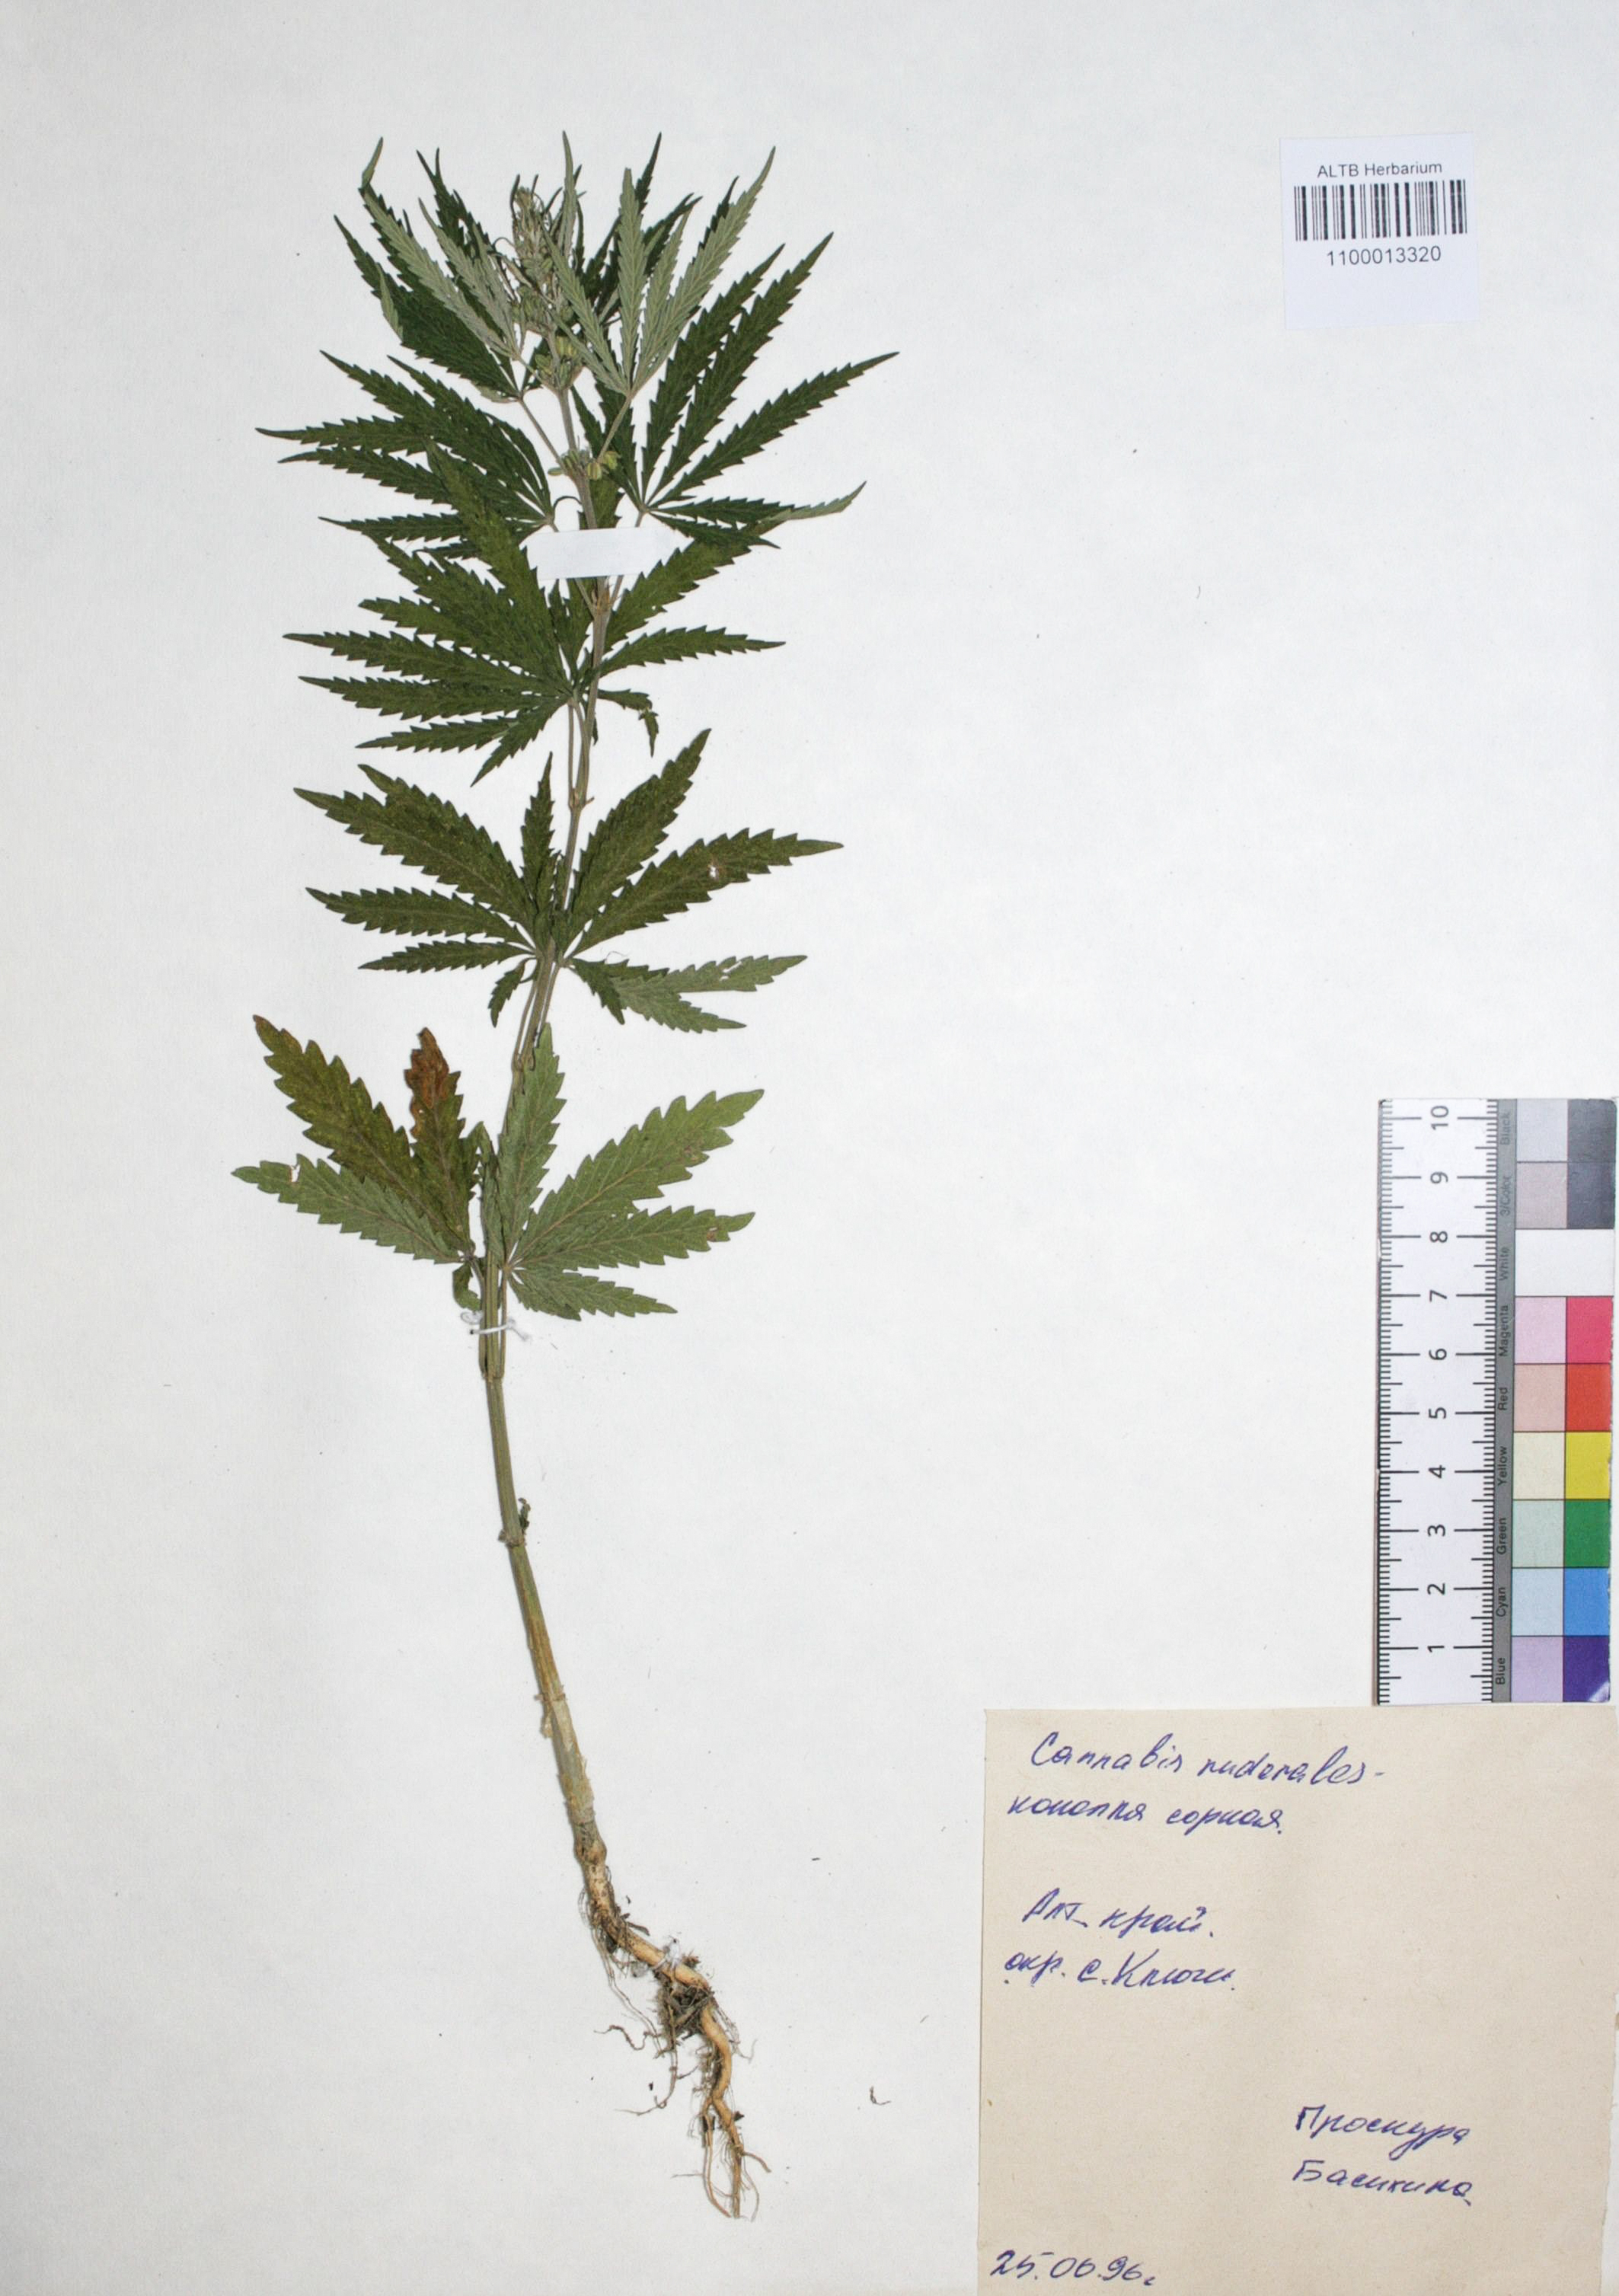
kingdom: Plantae
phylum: Tracheophyta
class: Magnoliopsida
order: Rosales
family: Cannabaceae
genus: Cannabis
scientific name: Cannabis sativa
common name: Hemp
